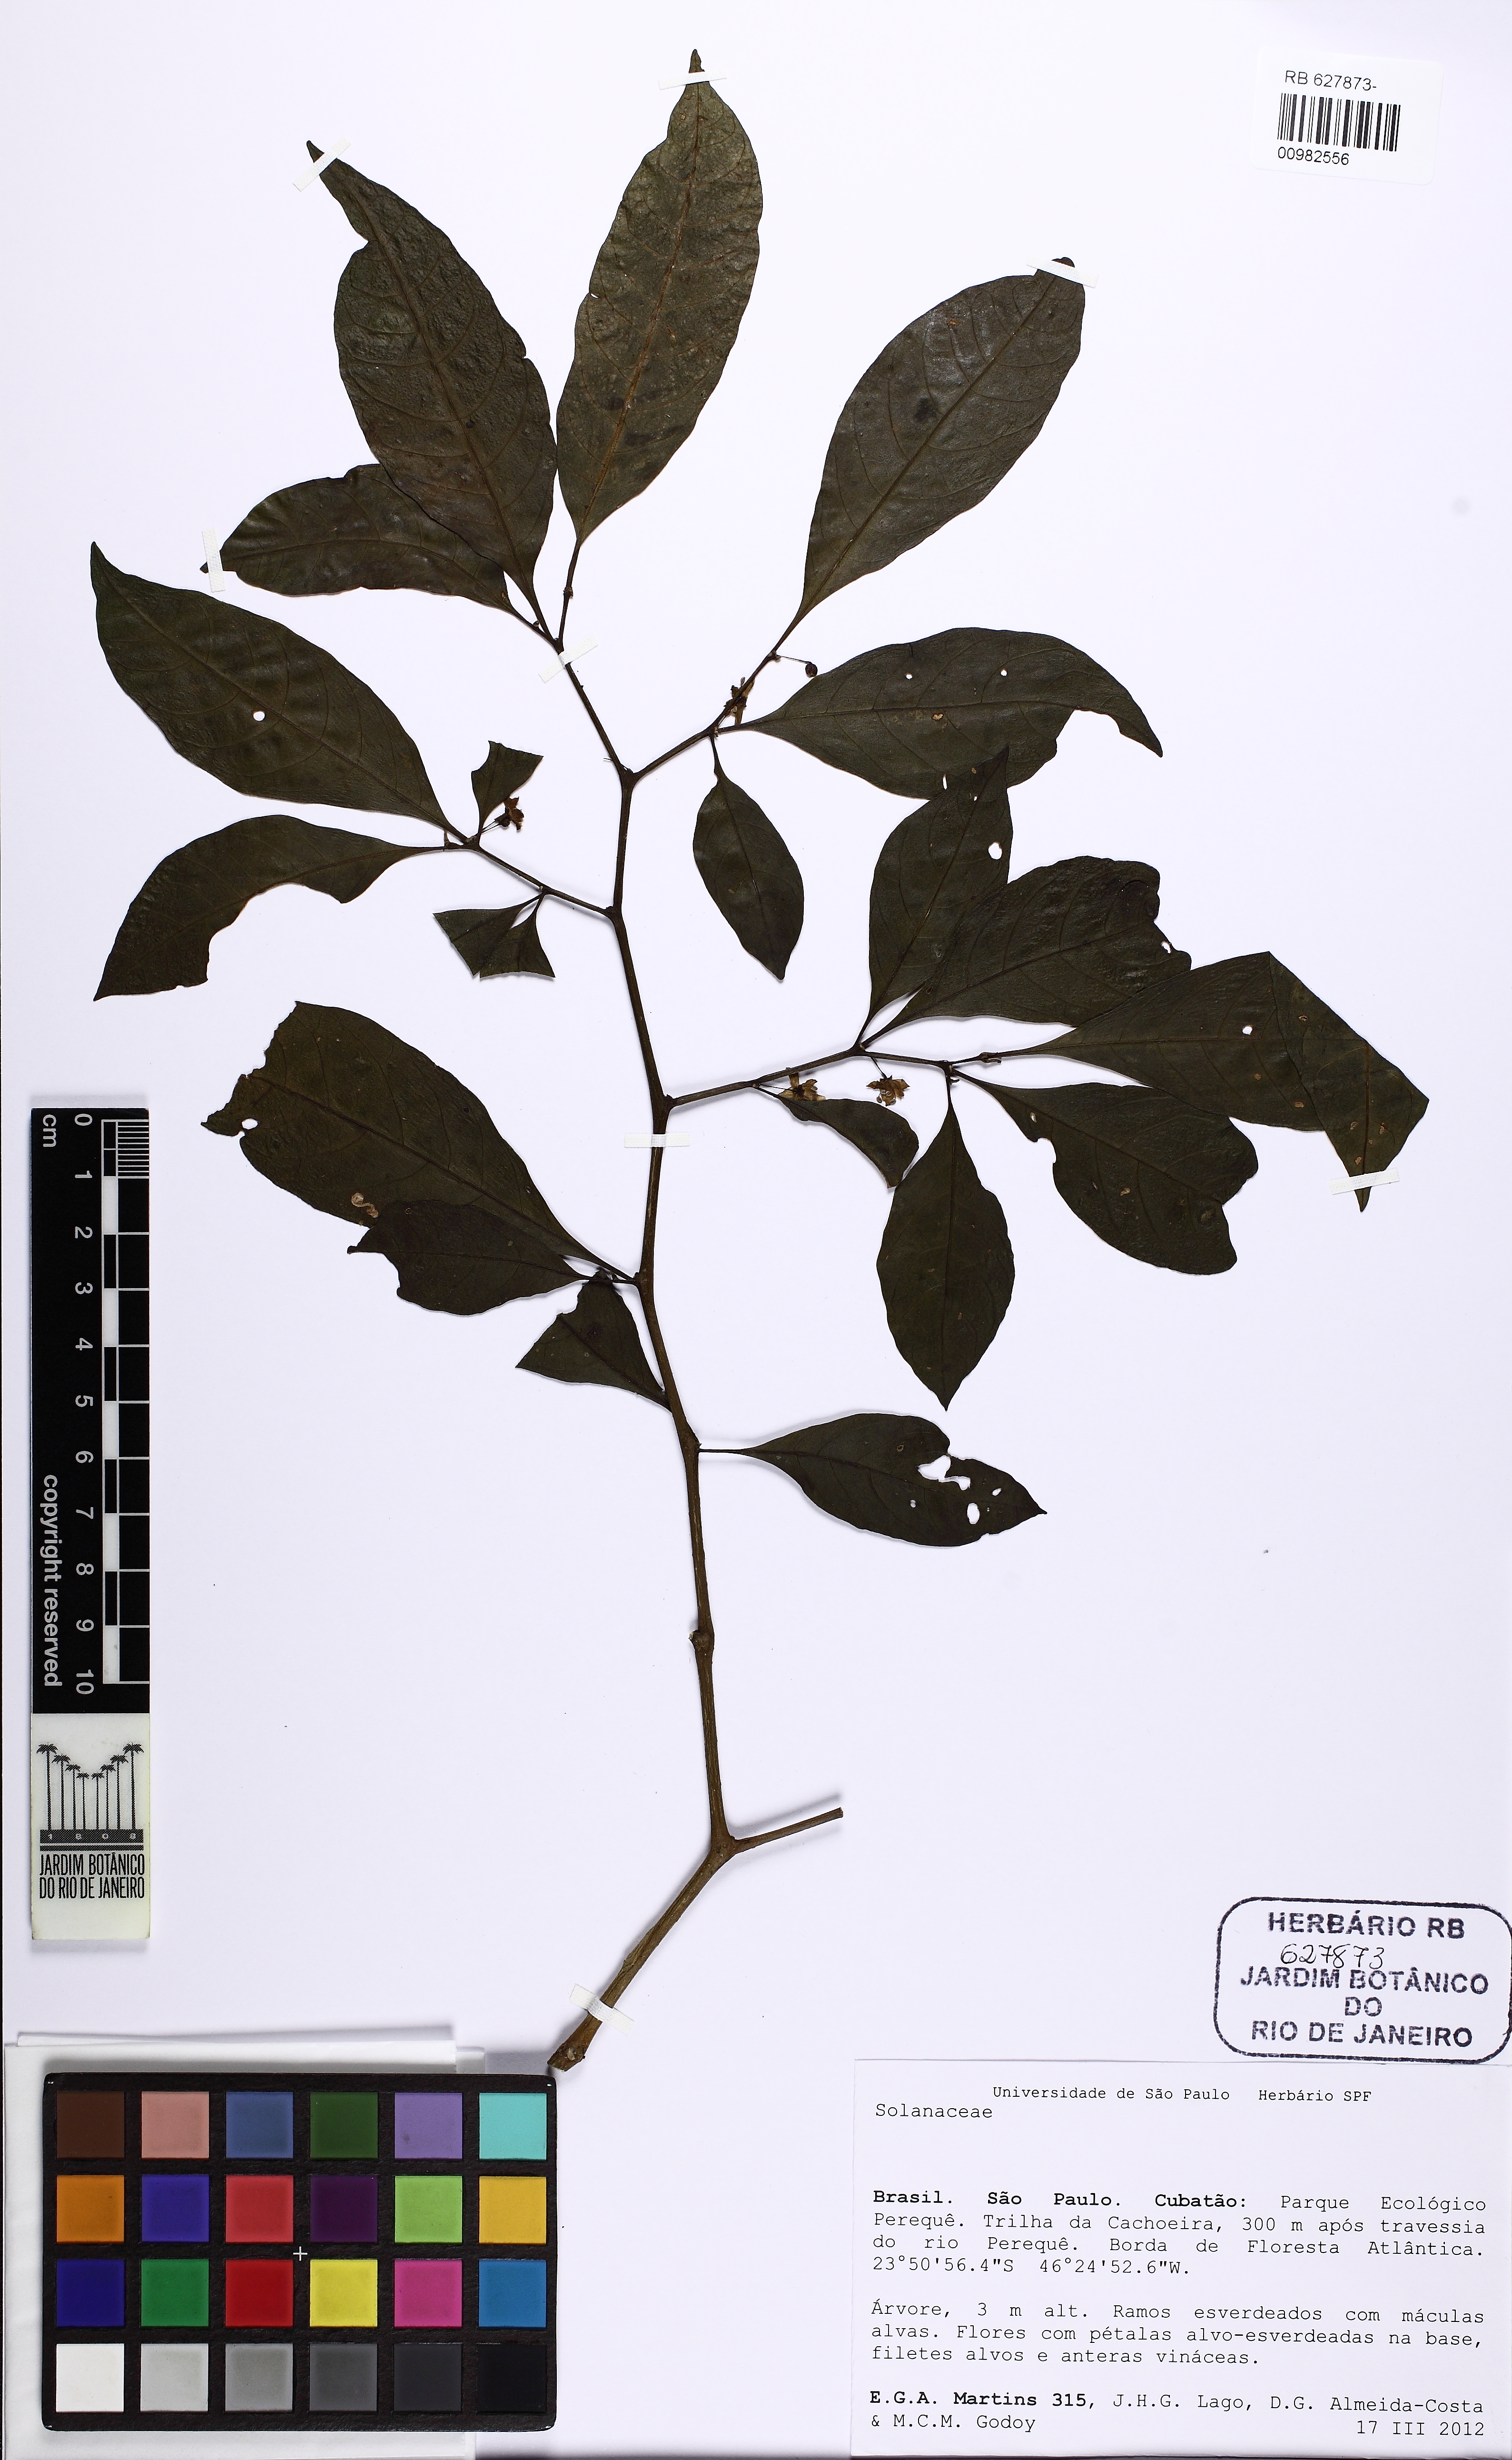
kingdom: Plantae
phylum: Tracheophyta
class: Magnoliopsida
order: Solanales
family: Solanaceae
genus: Athenaea
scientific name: Athenaea fasciculata
